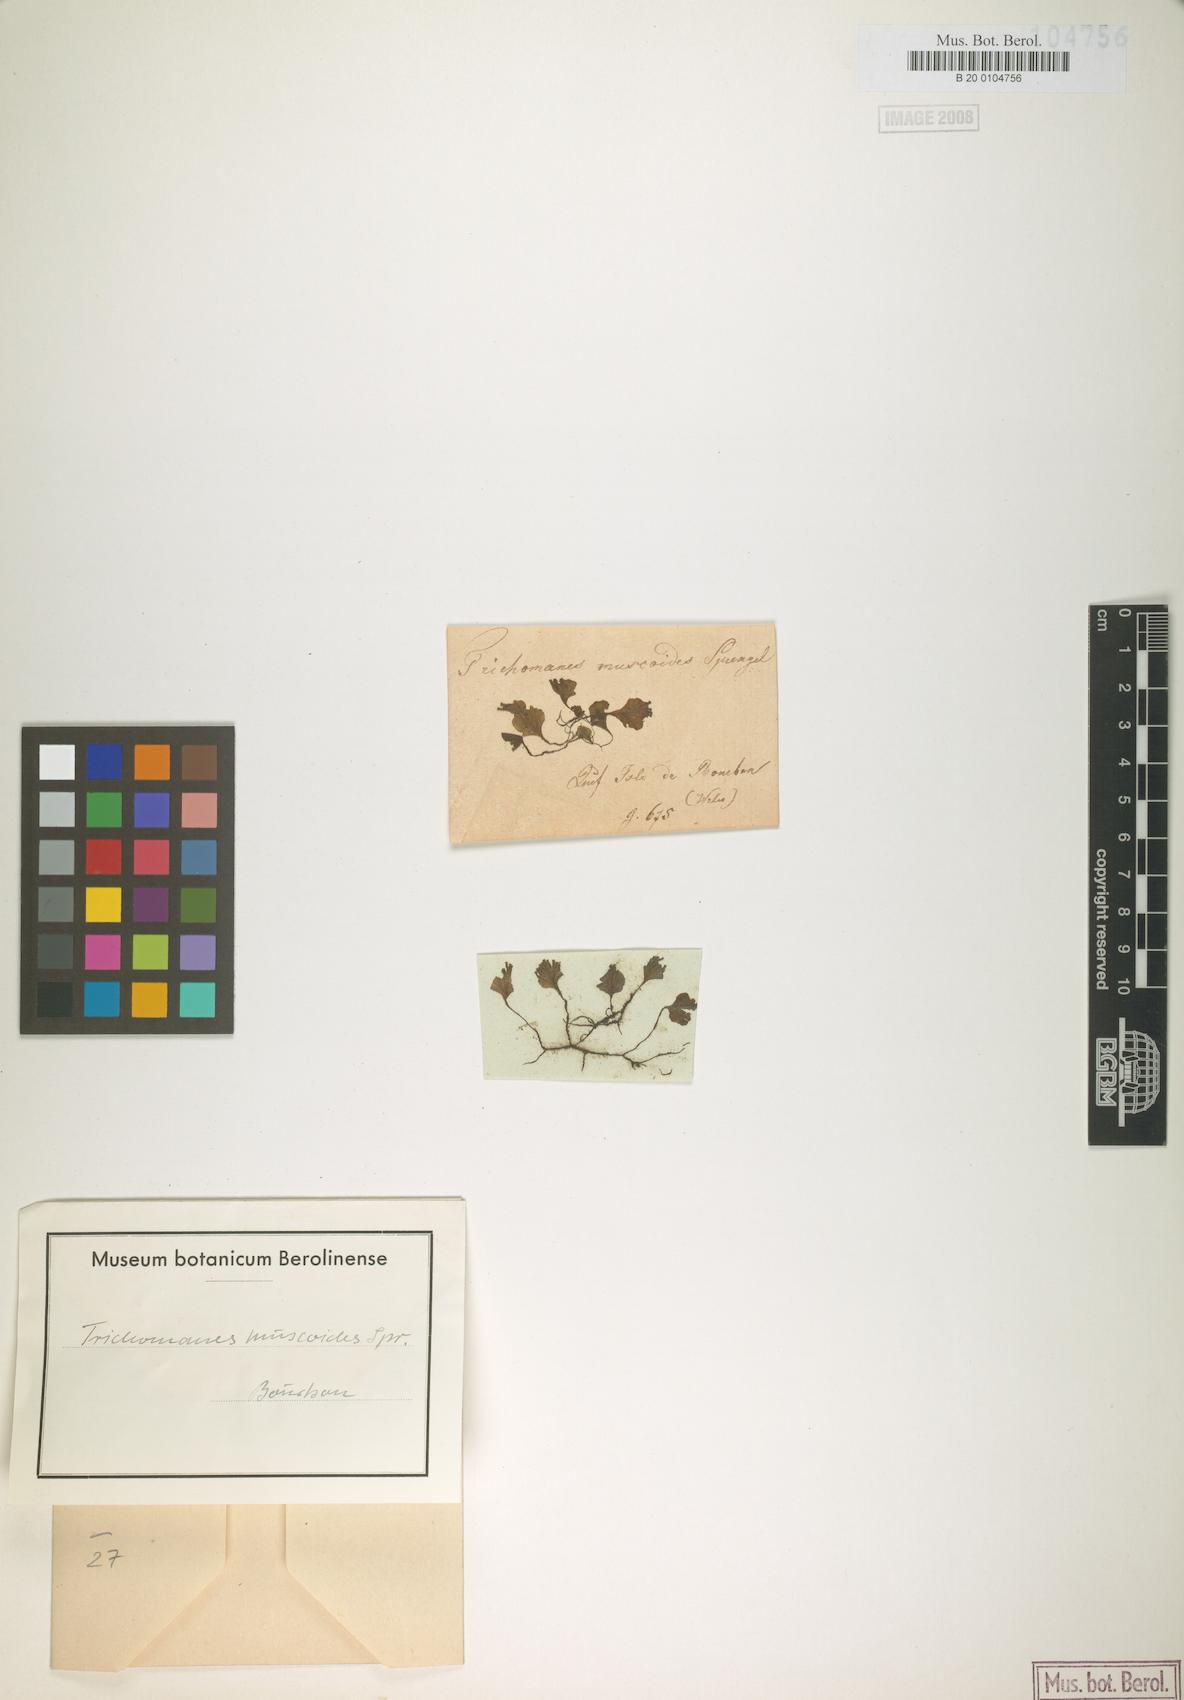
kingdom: Plantae
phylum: Tracheophyta
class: Polypodiopsida
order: Hymenophyllales
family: Hymenophyllaceae
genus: Didymoglossum
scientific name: Didymoglossum hymenoides
